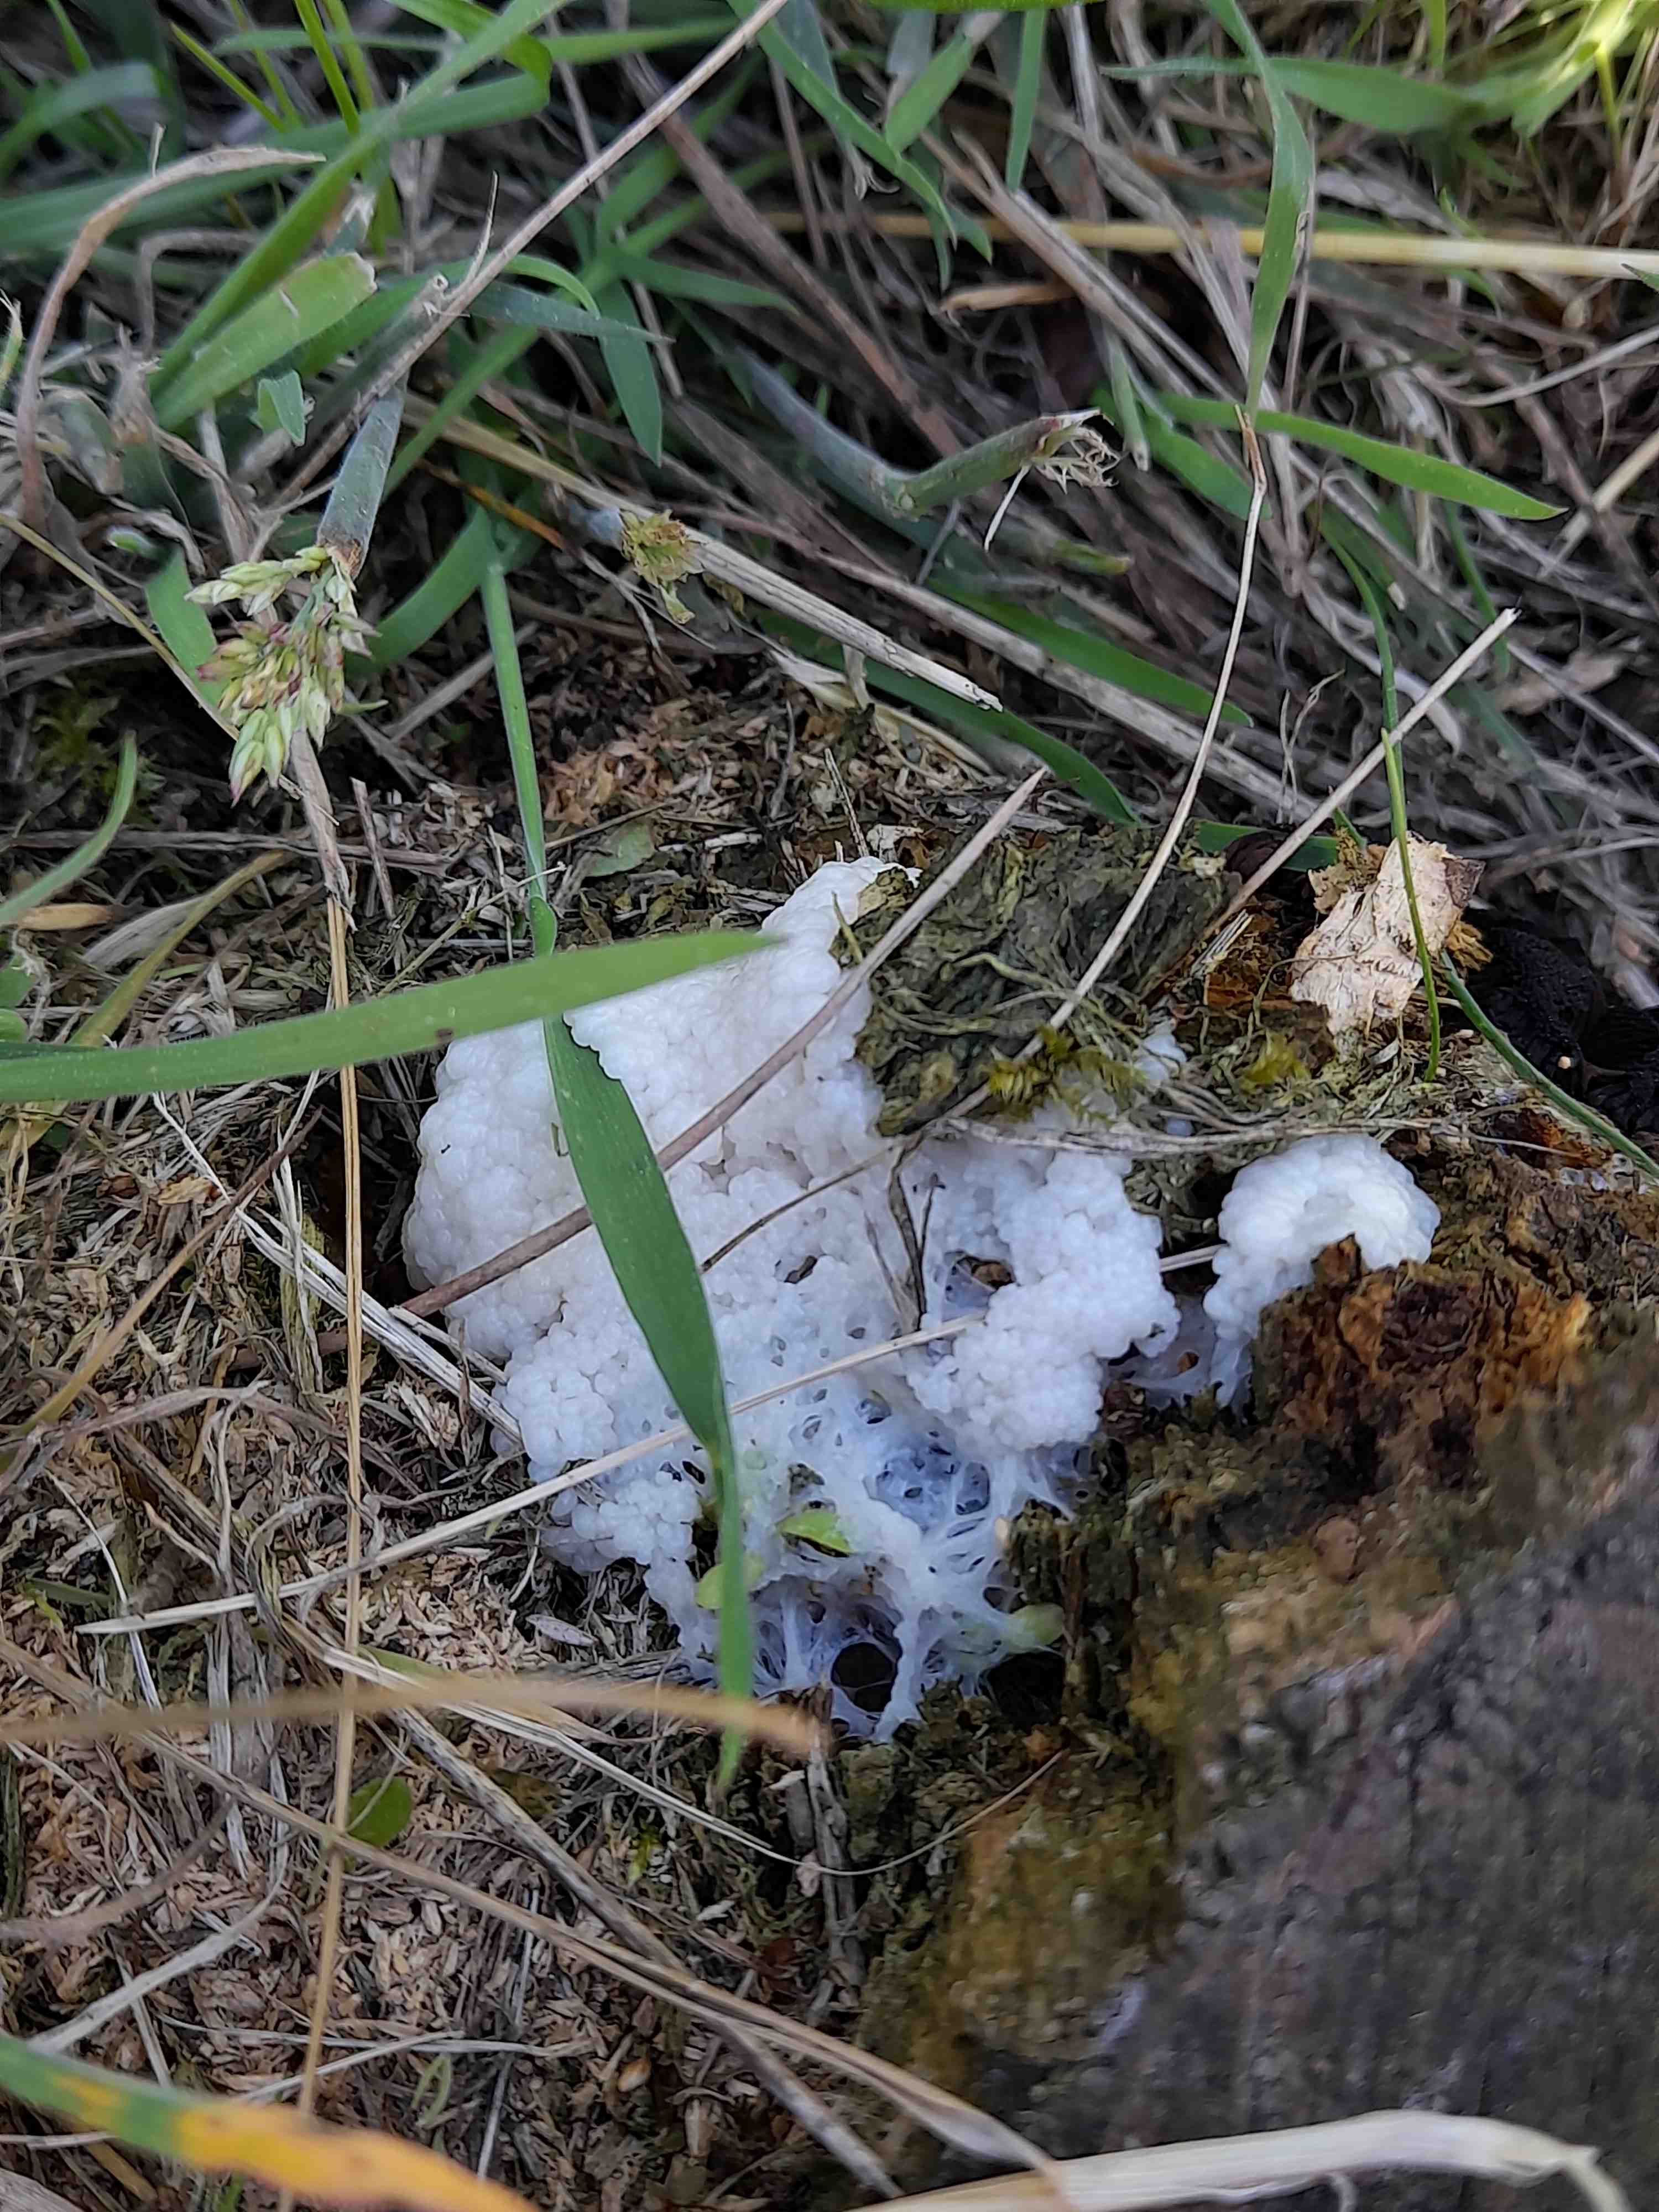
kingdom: Protozoa
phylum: Mycetozoa
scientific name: Mycetozoa
